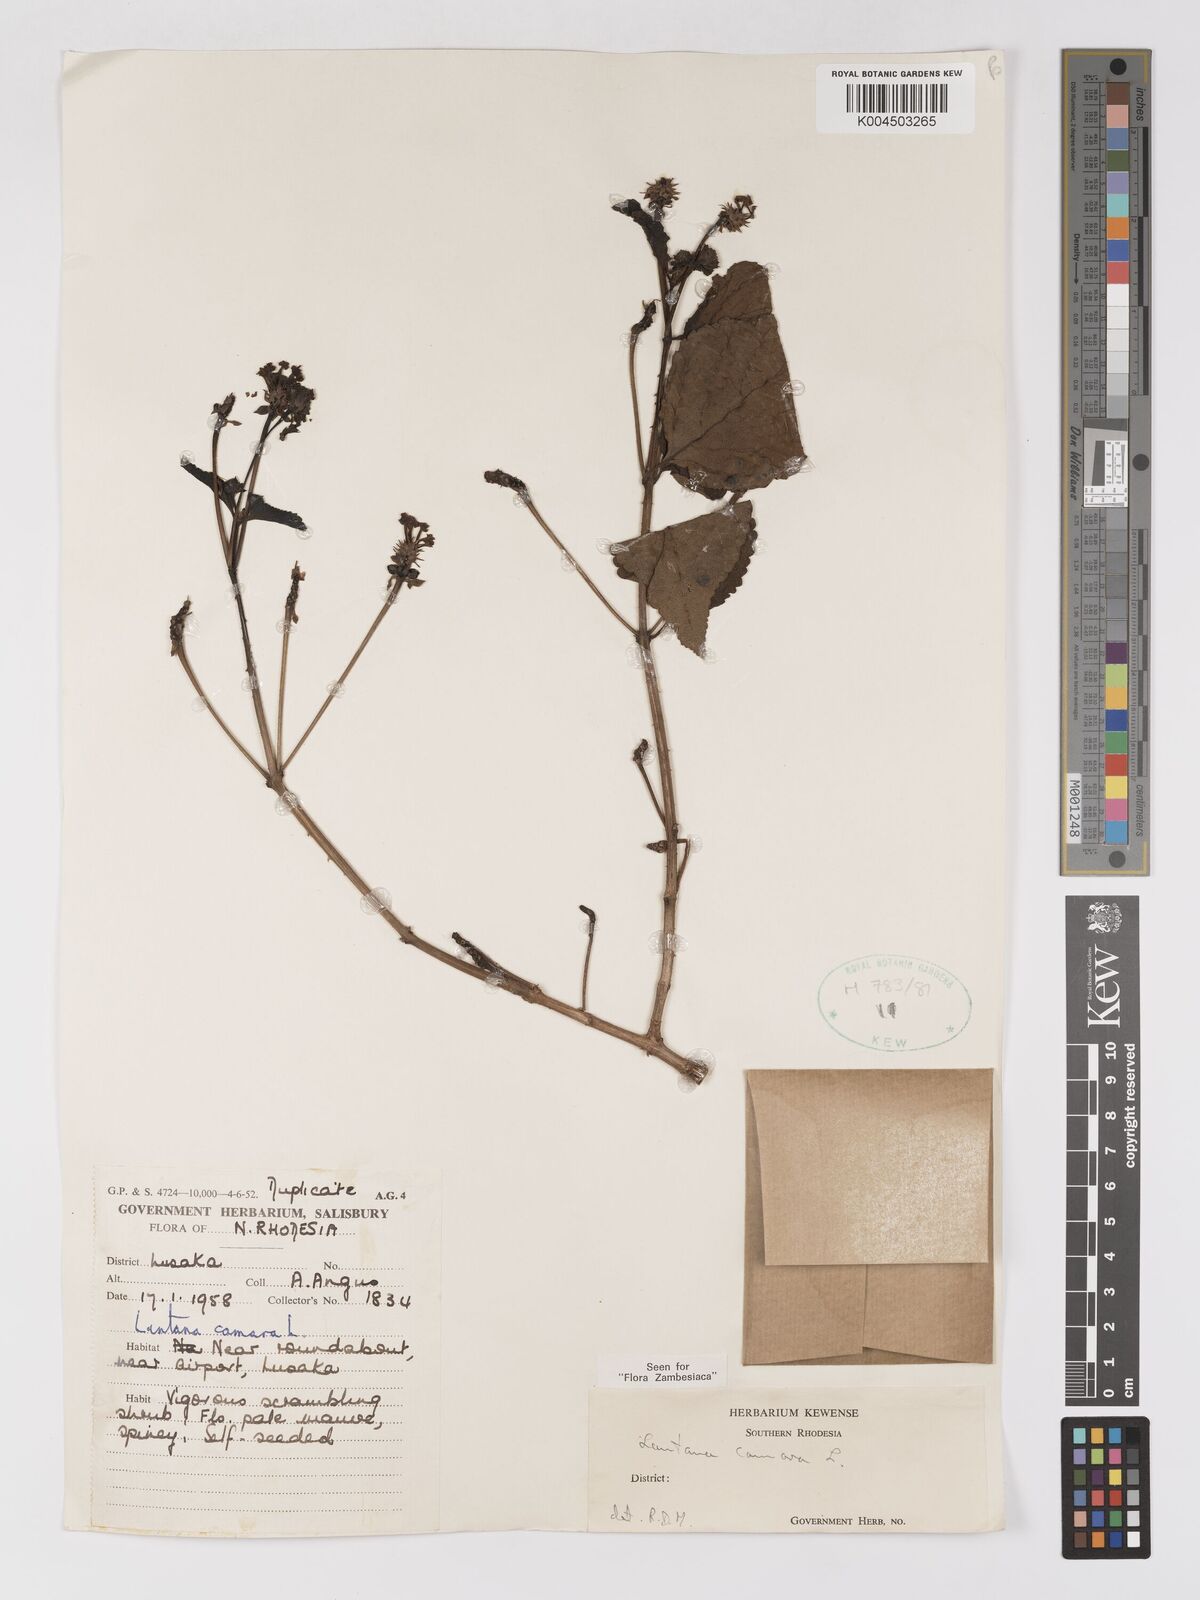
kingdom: Plantae
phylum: Tracheophyta
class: Magnoliopsida
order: Lamiales
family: Verbenaceae
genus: Lantana
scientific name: Lantana camara
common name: Lantana
